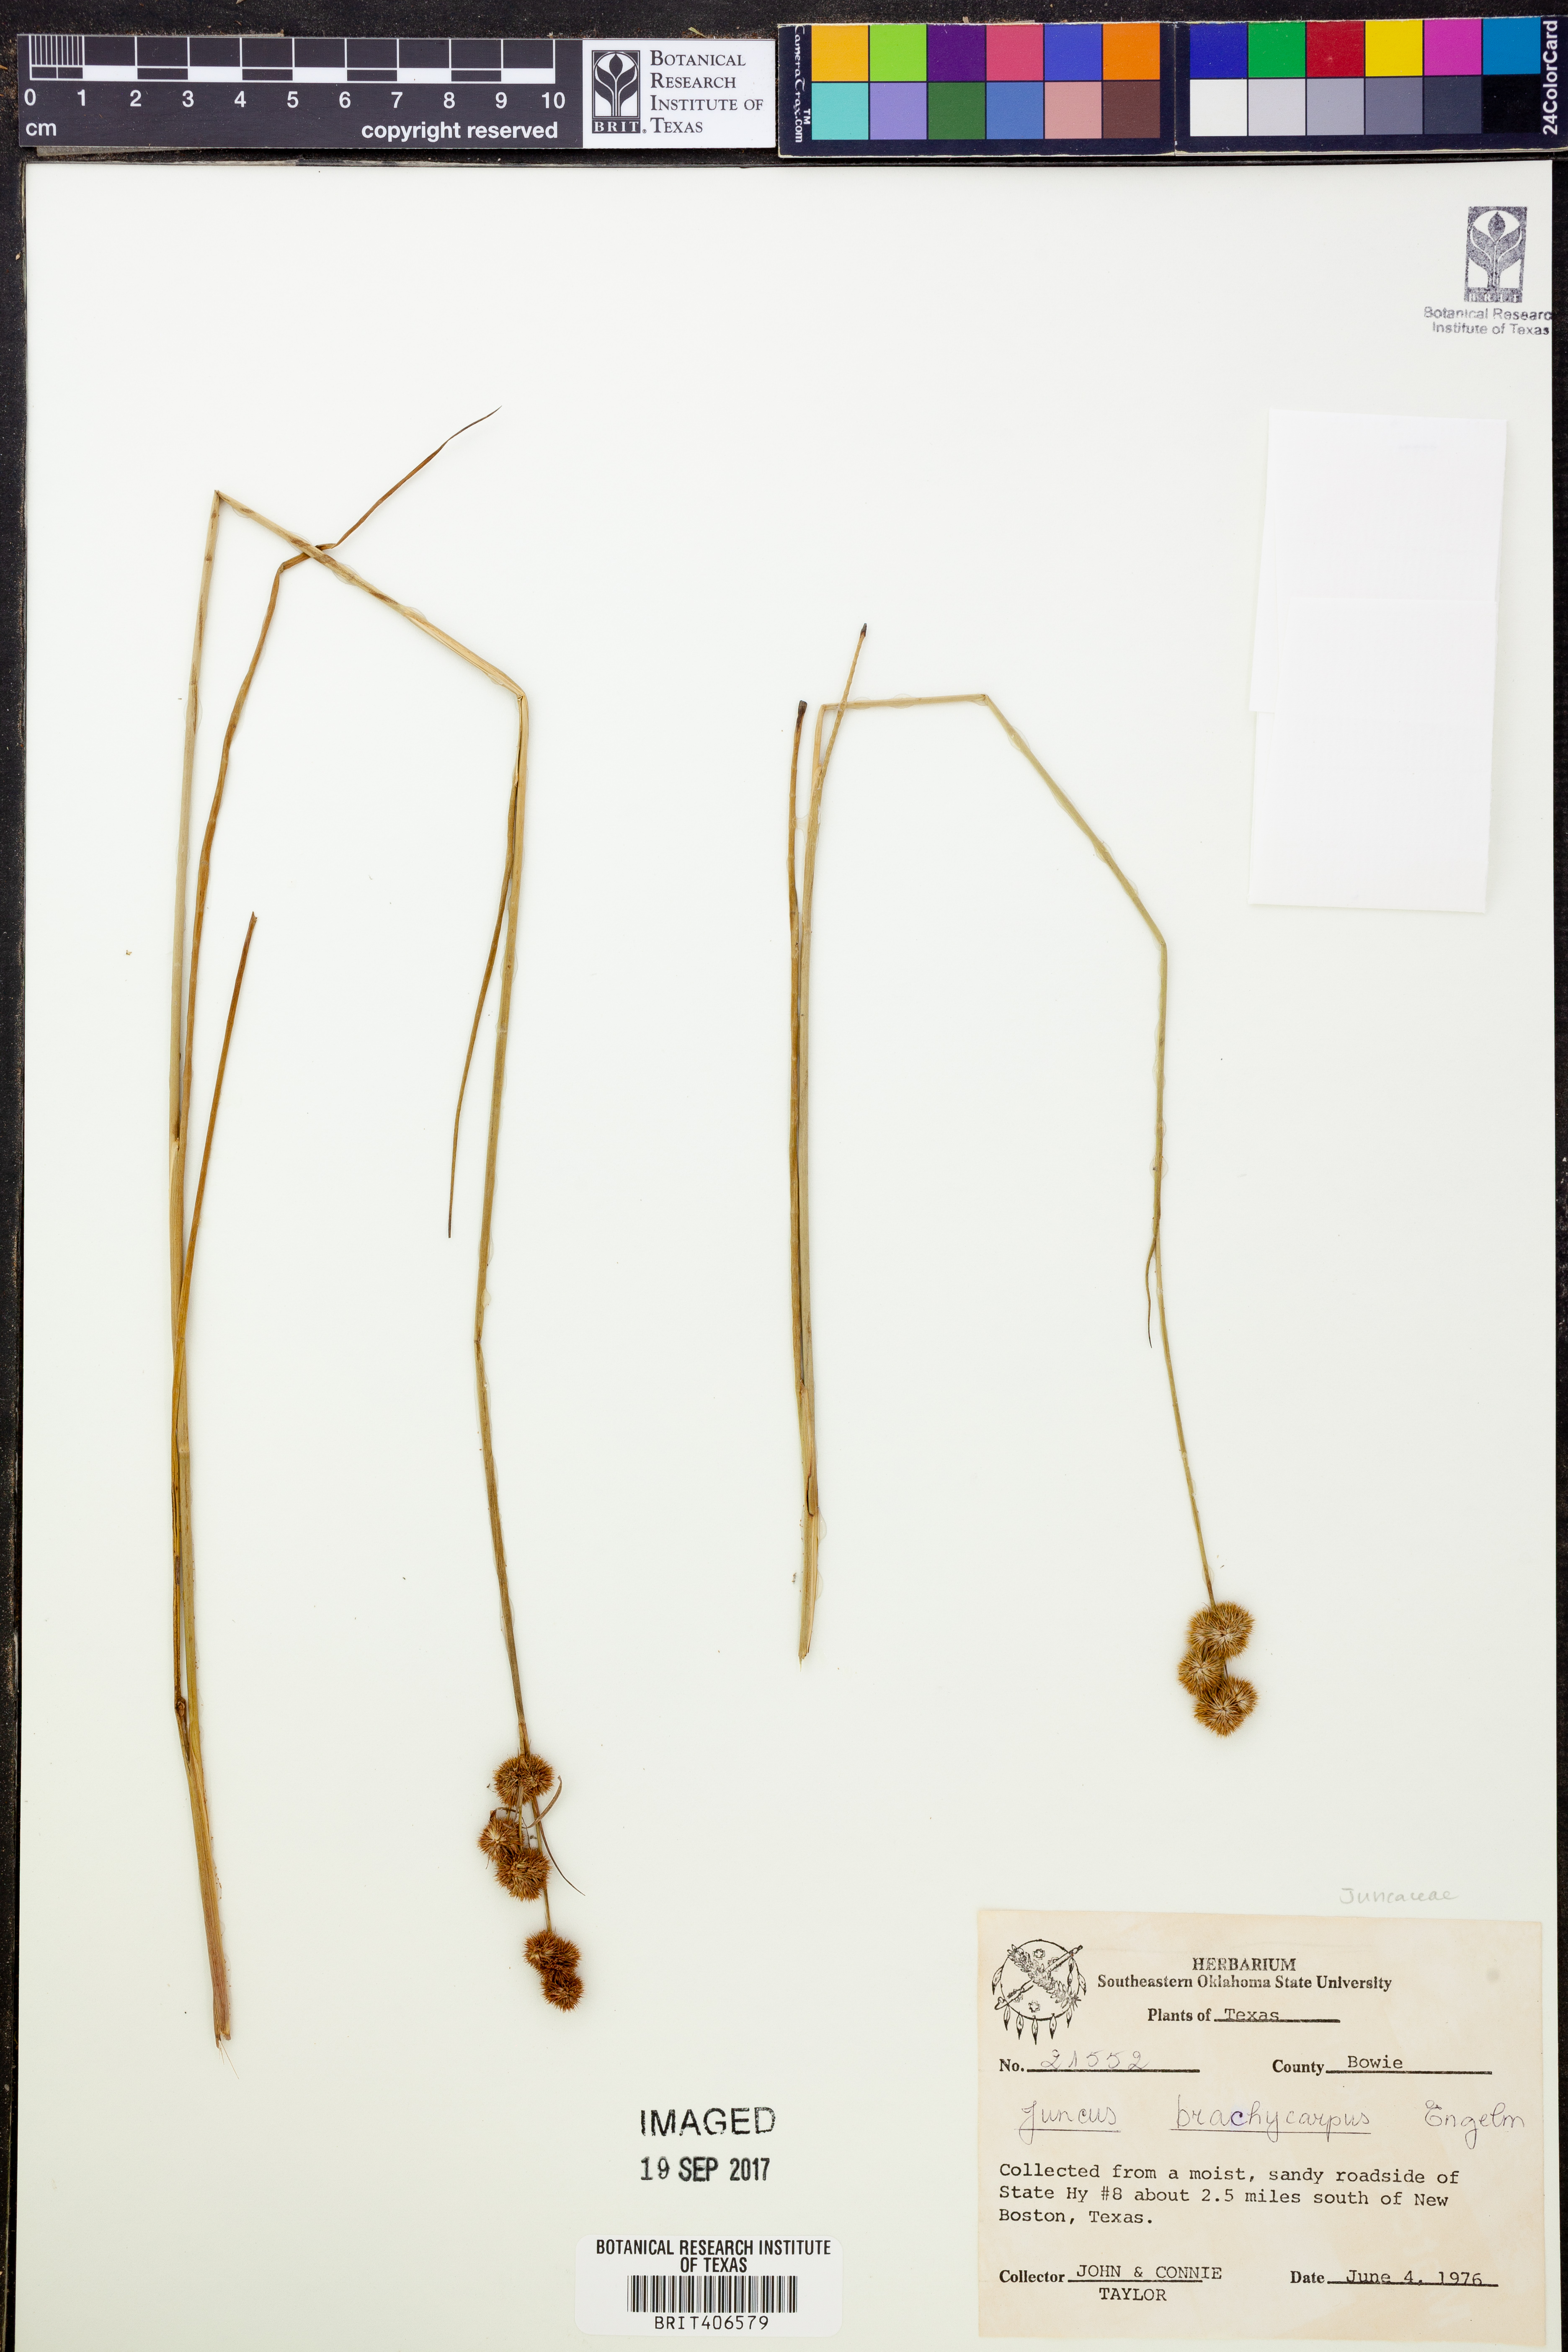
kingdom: Plantae
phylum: Tracheophyta
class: Liliopsida
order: Poales
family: Juncaceae
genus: Juncus
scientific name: Juncus brachycarpus
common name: Shore rush
